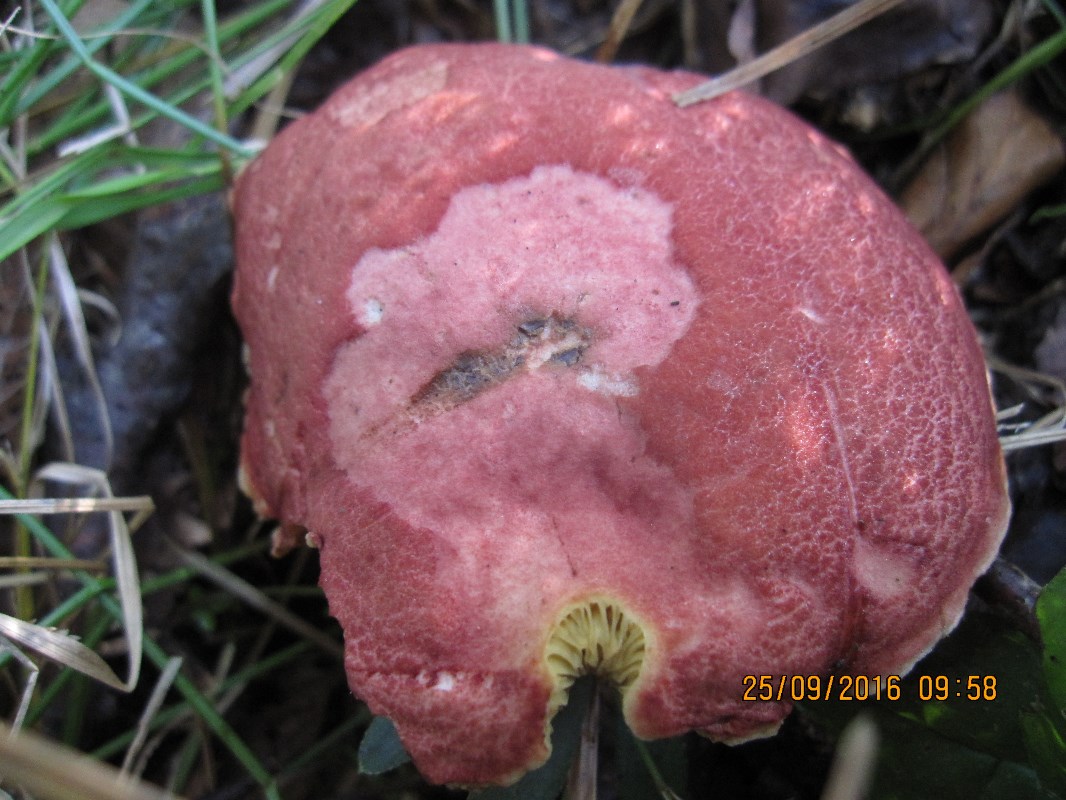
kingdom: Fungi
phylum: Basidiomycota
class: Agaricomycetes
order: Boletales
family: Boletaceae
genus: Hortiboletus
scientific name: Hortiboletus rubellus
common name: blodrød rørhat
